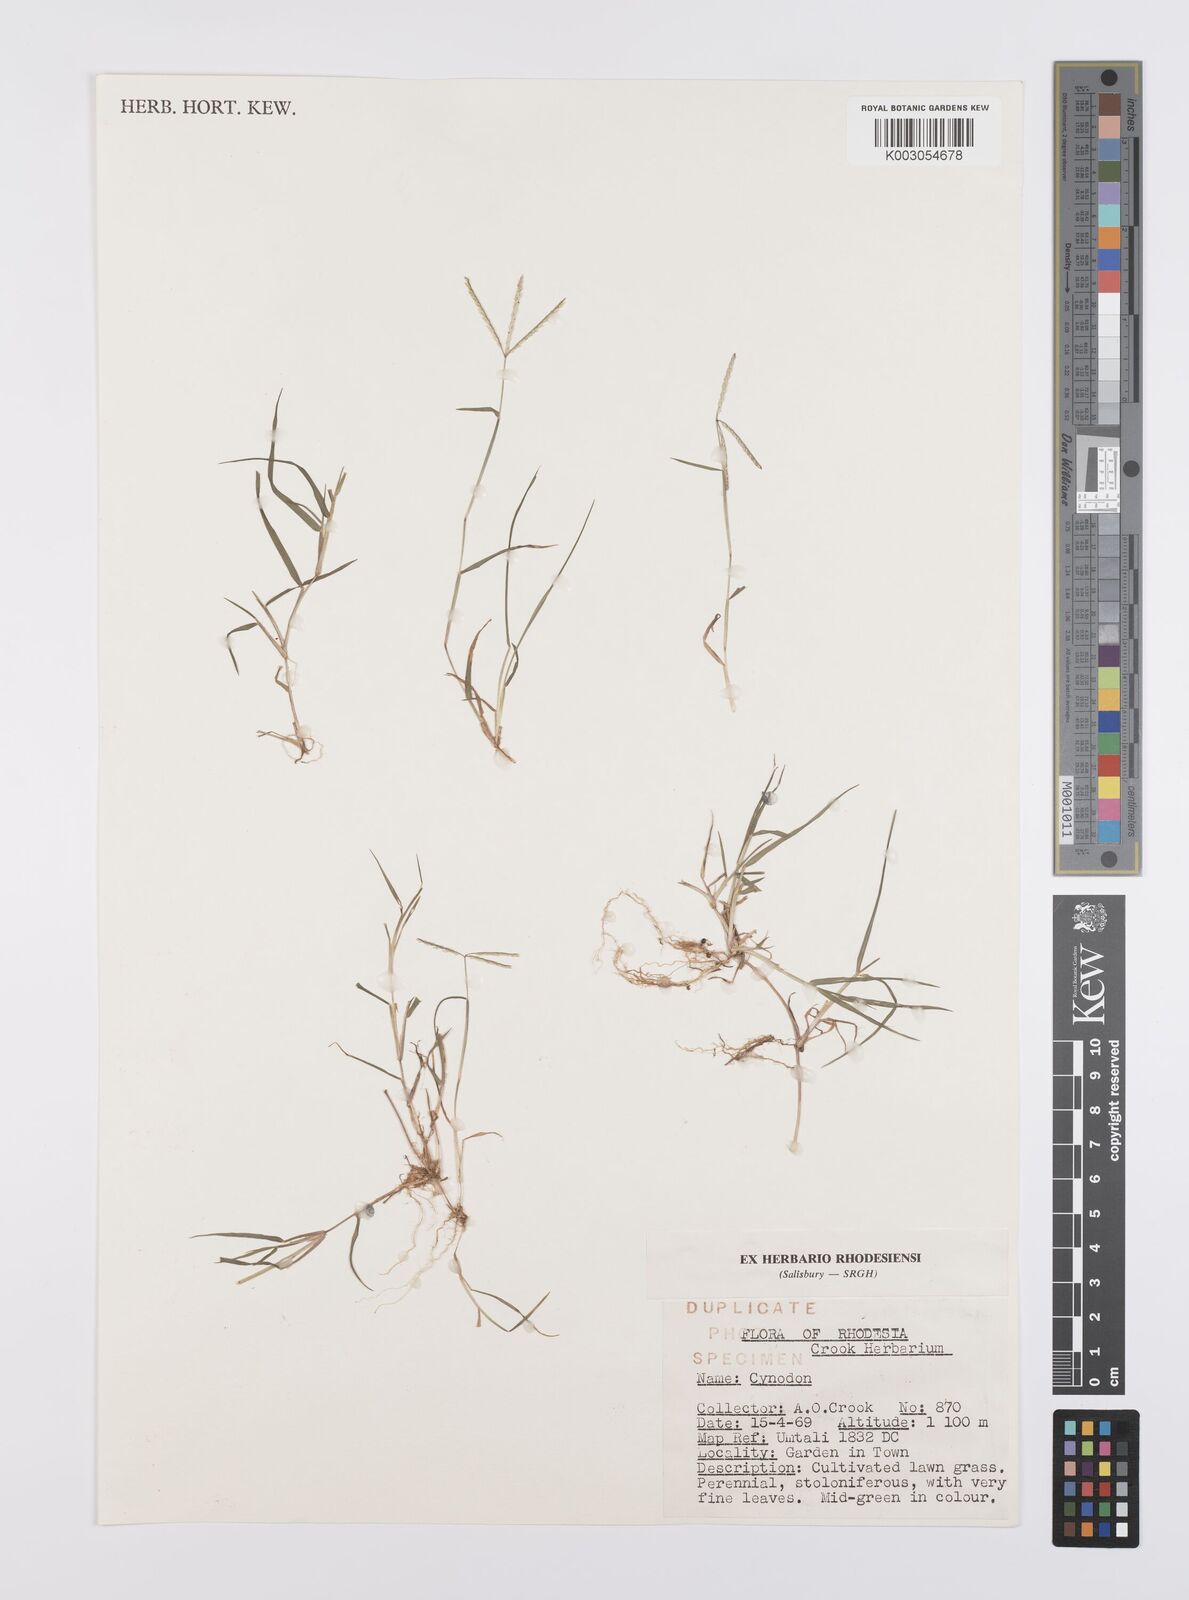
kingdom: Plantae
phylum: Tracheophyta
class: Liliopsida
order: Poales
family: Poaceae
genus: Cynodon
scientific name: Cynodon incompletus
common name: African bermuda-grass
